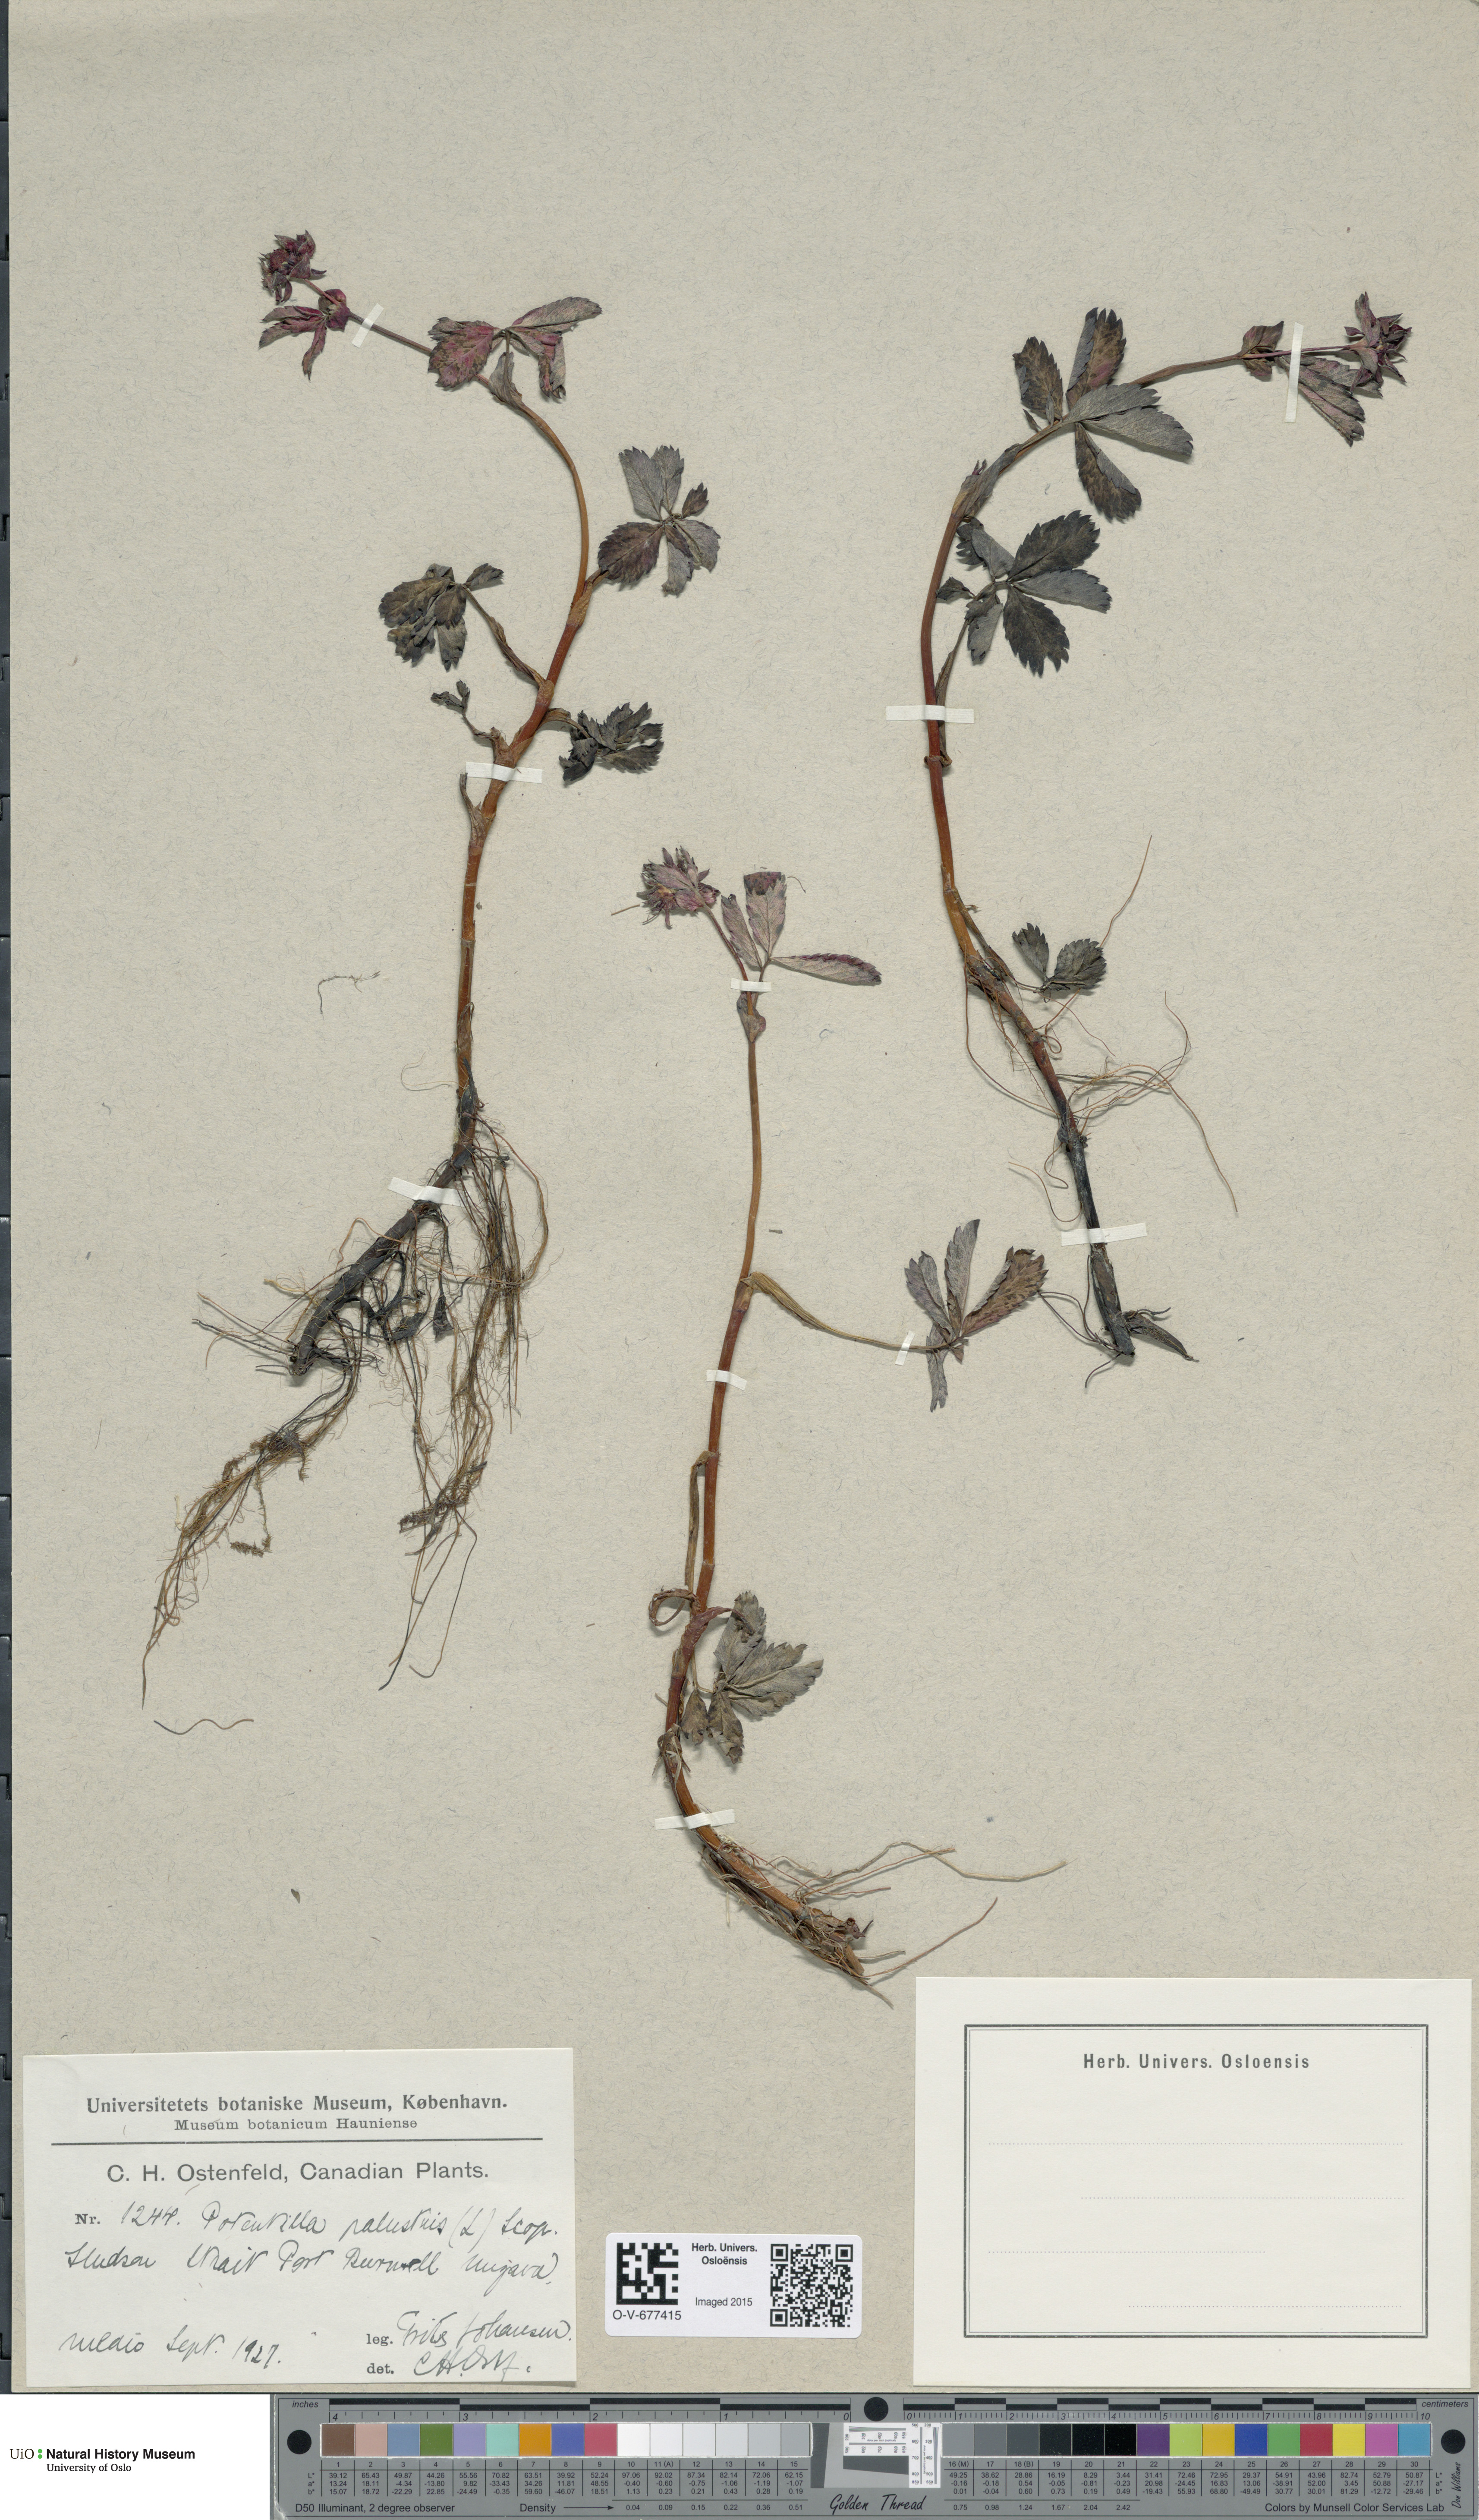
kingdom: Plantae
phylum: Tracheophyta
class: Magnoliopsida
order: Rosales
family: Rosaceae
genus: Comarum
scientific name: Comarum palustre
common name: Marsh cinquefoil
